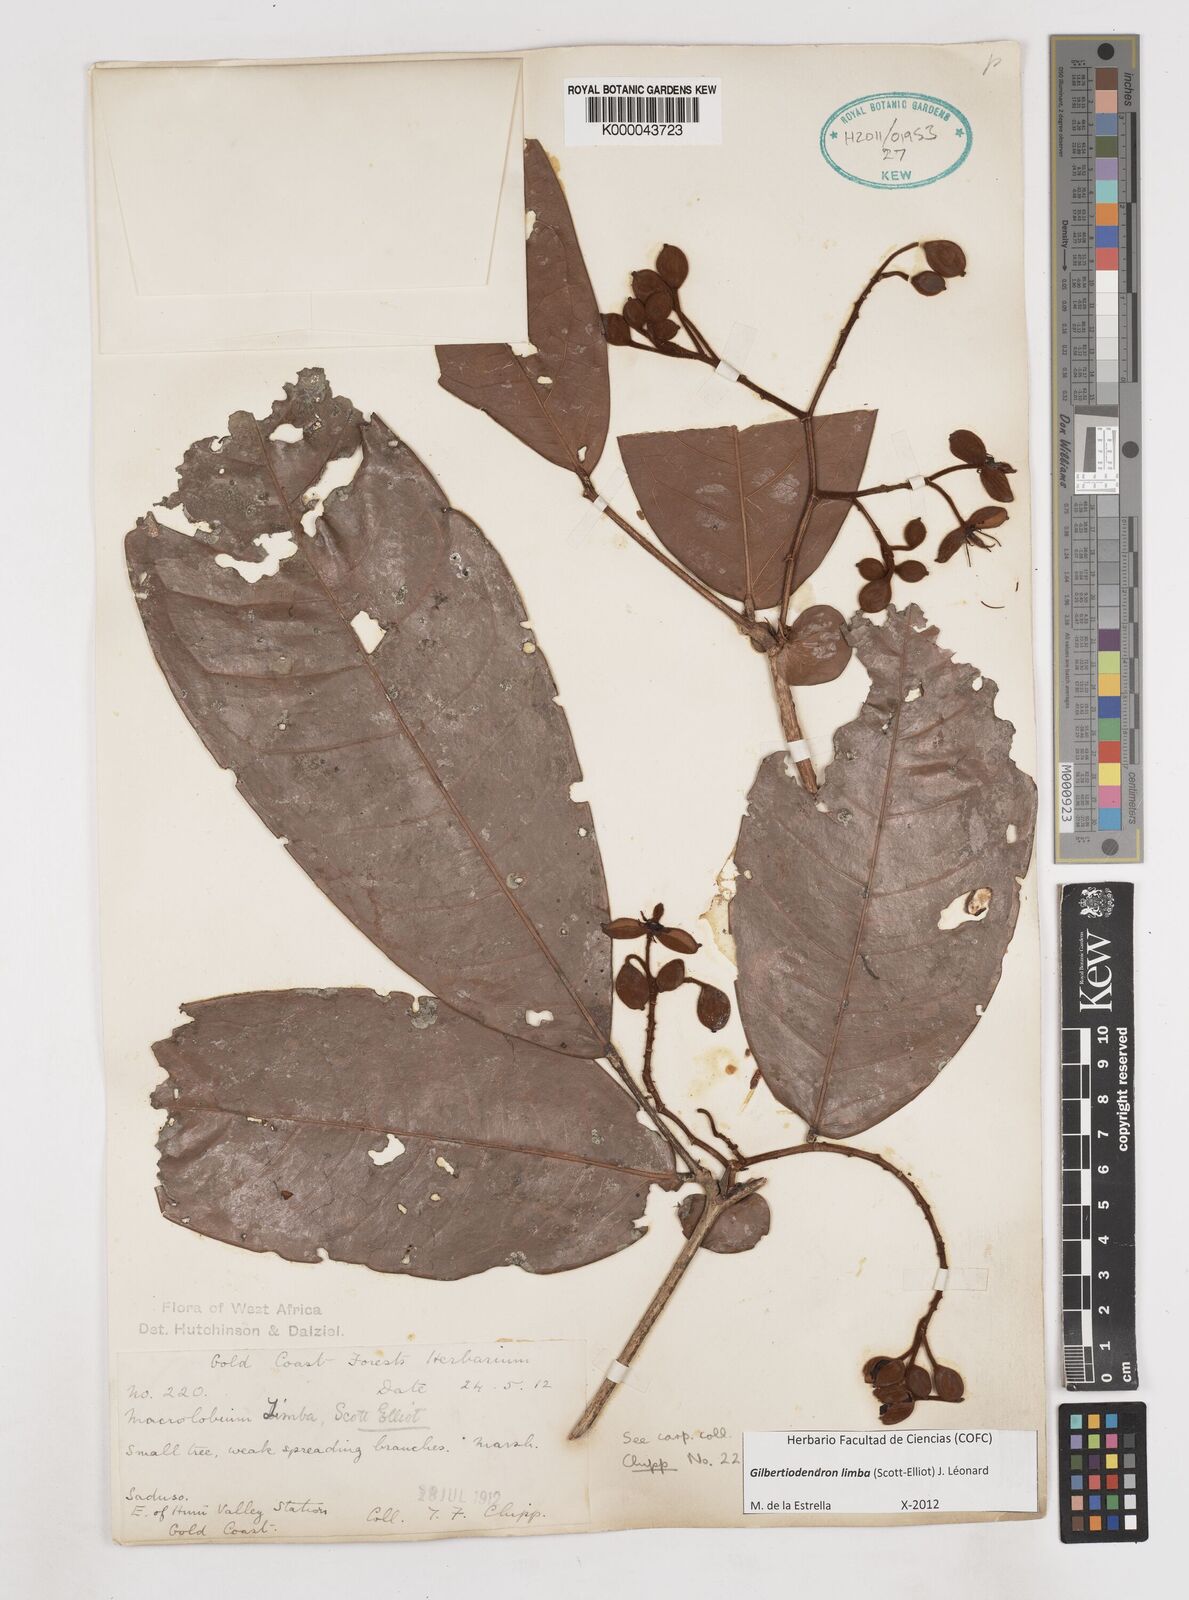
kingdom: Plantae
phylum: Tracheophyta
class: Magnoliopsida
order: Fabales
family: Fabaceae
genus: Gilbertiodendron
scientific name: Gilbertiodendron
